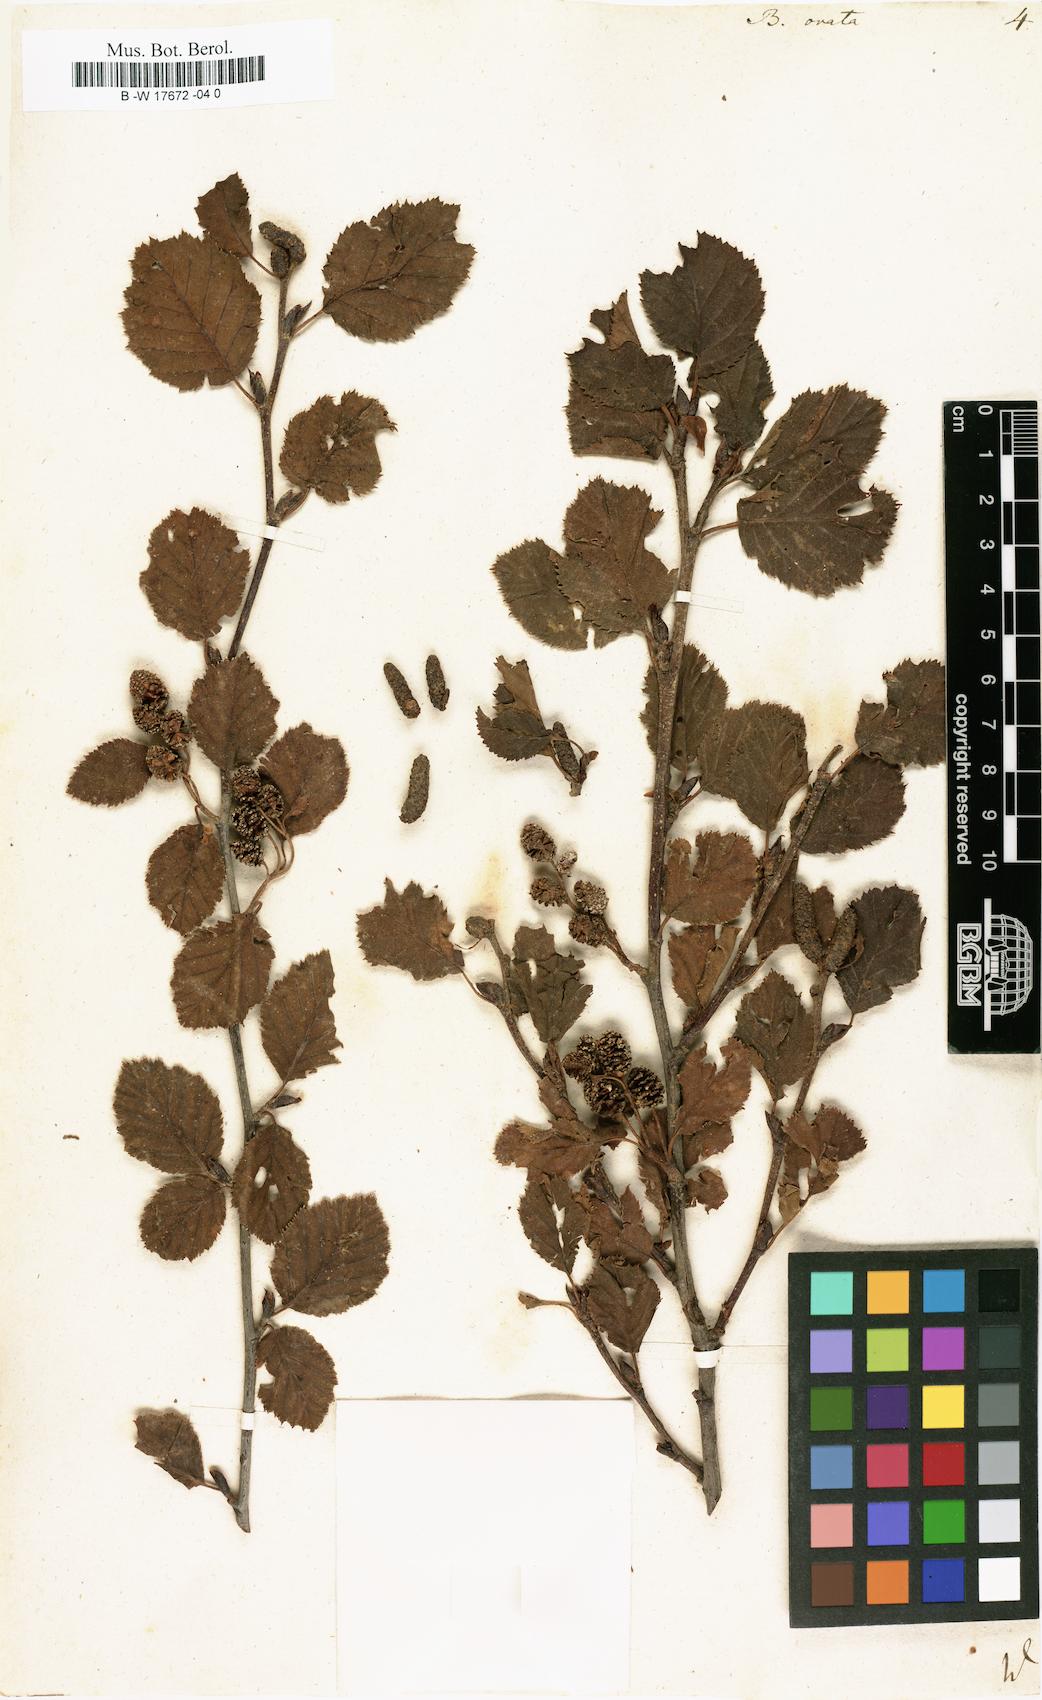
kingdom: Plantae
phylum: Tracheophyta
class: Magnoliopsida
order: Fagales
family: Betulaceae
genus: Betula
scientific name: Betula pubescens
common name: Downy birch
